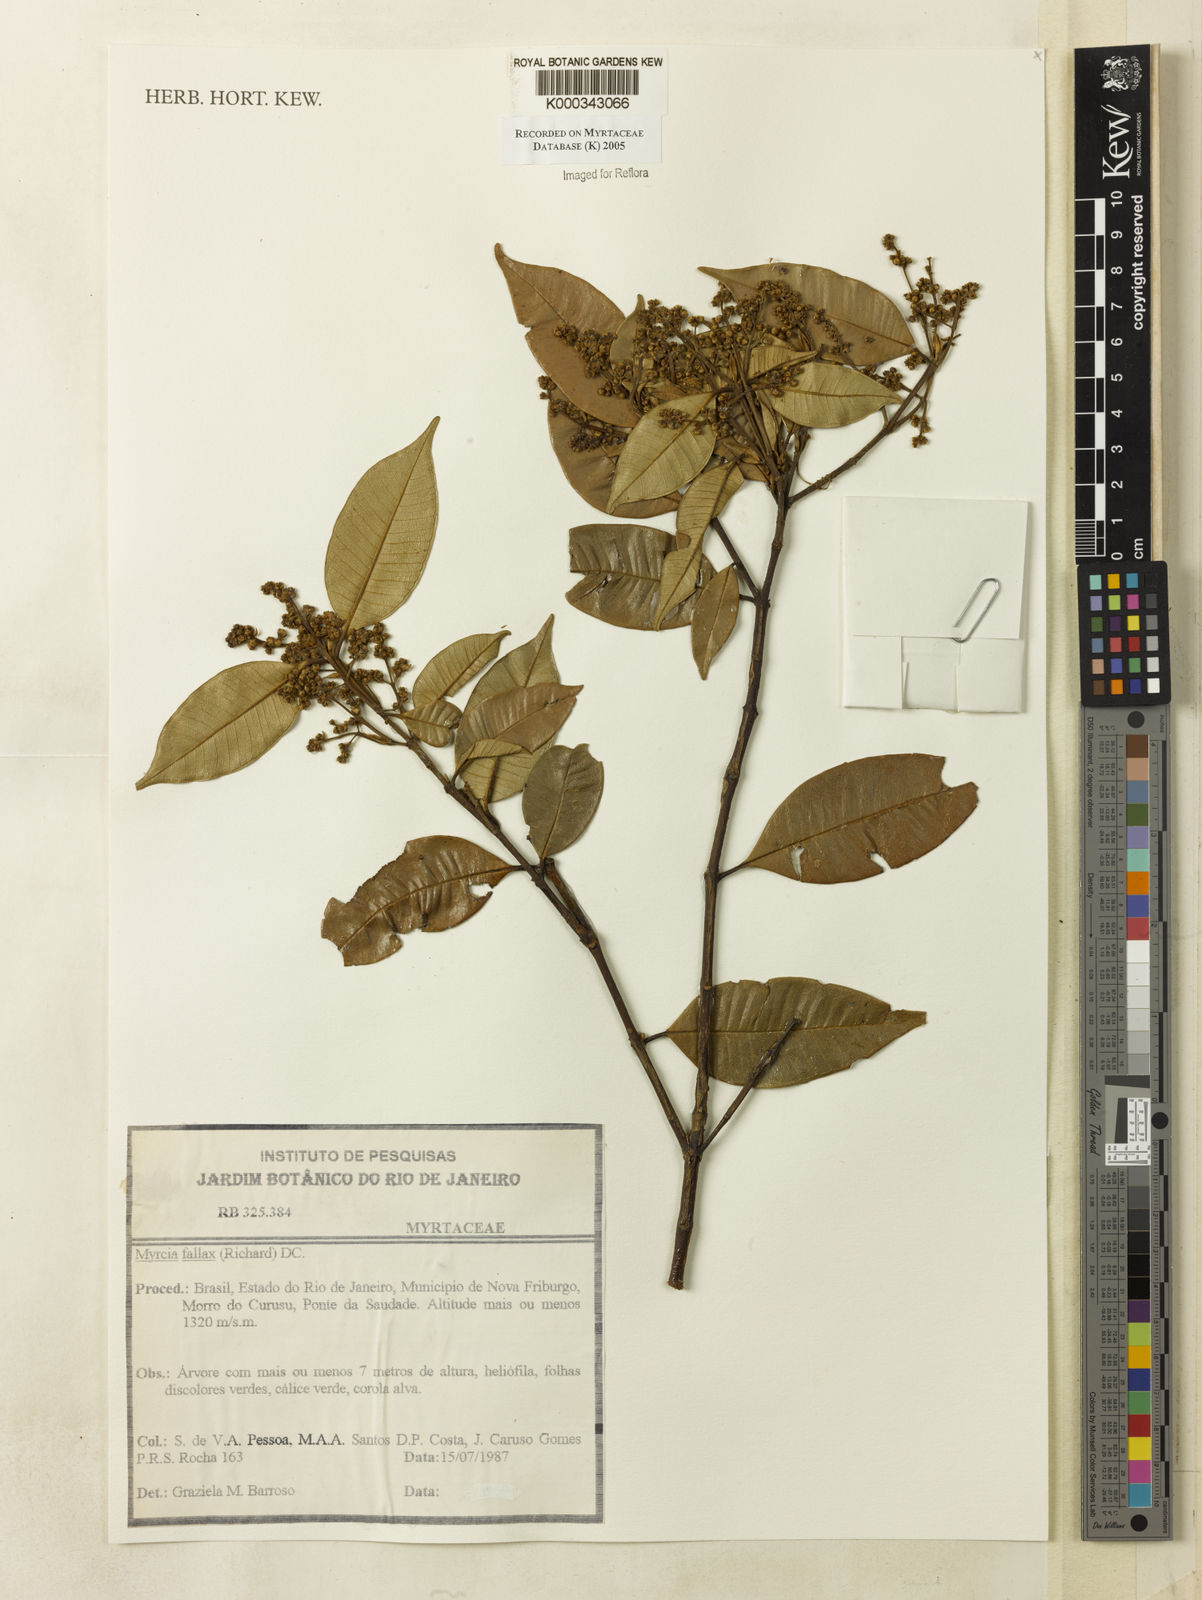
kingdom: Plantae
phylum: Tracheophyta
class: Magnoliopsida
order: Myrtales
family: Myrtaceae
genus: Myrcia
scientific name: Myrcia splendens
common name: Surinam cherry
